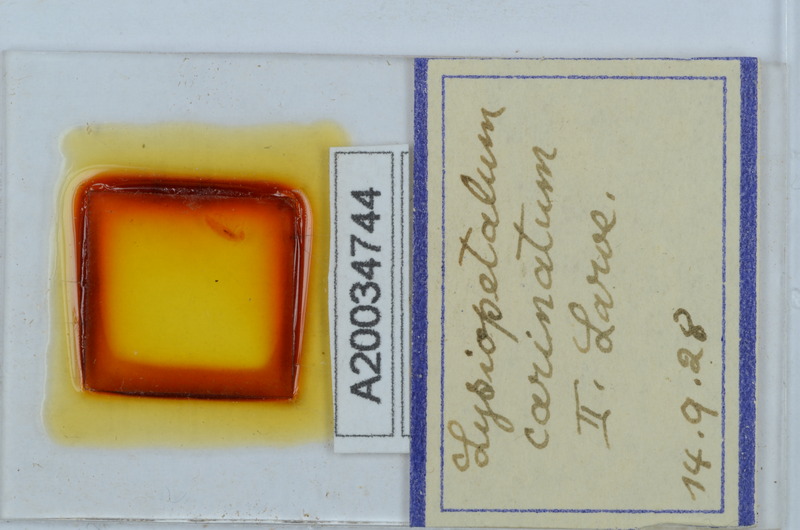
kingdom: Animalia
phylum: Arthropoda
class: Diplopoda
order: Callipodida
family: Schizopetalidae
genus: Acanthopetalum
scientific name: Acanthopetalum carinatum
